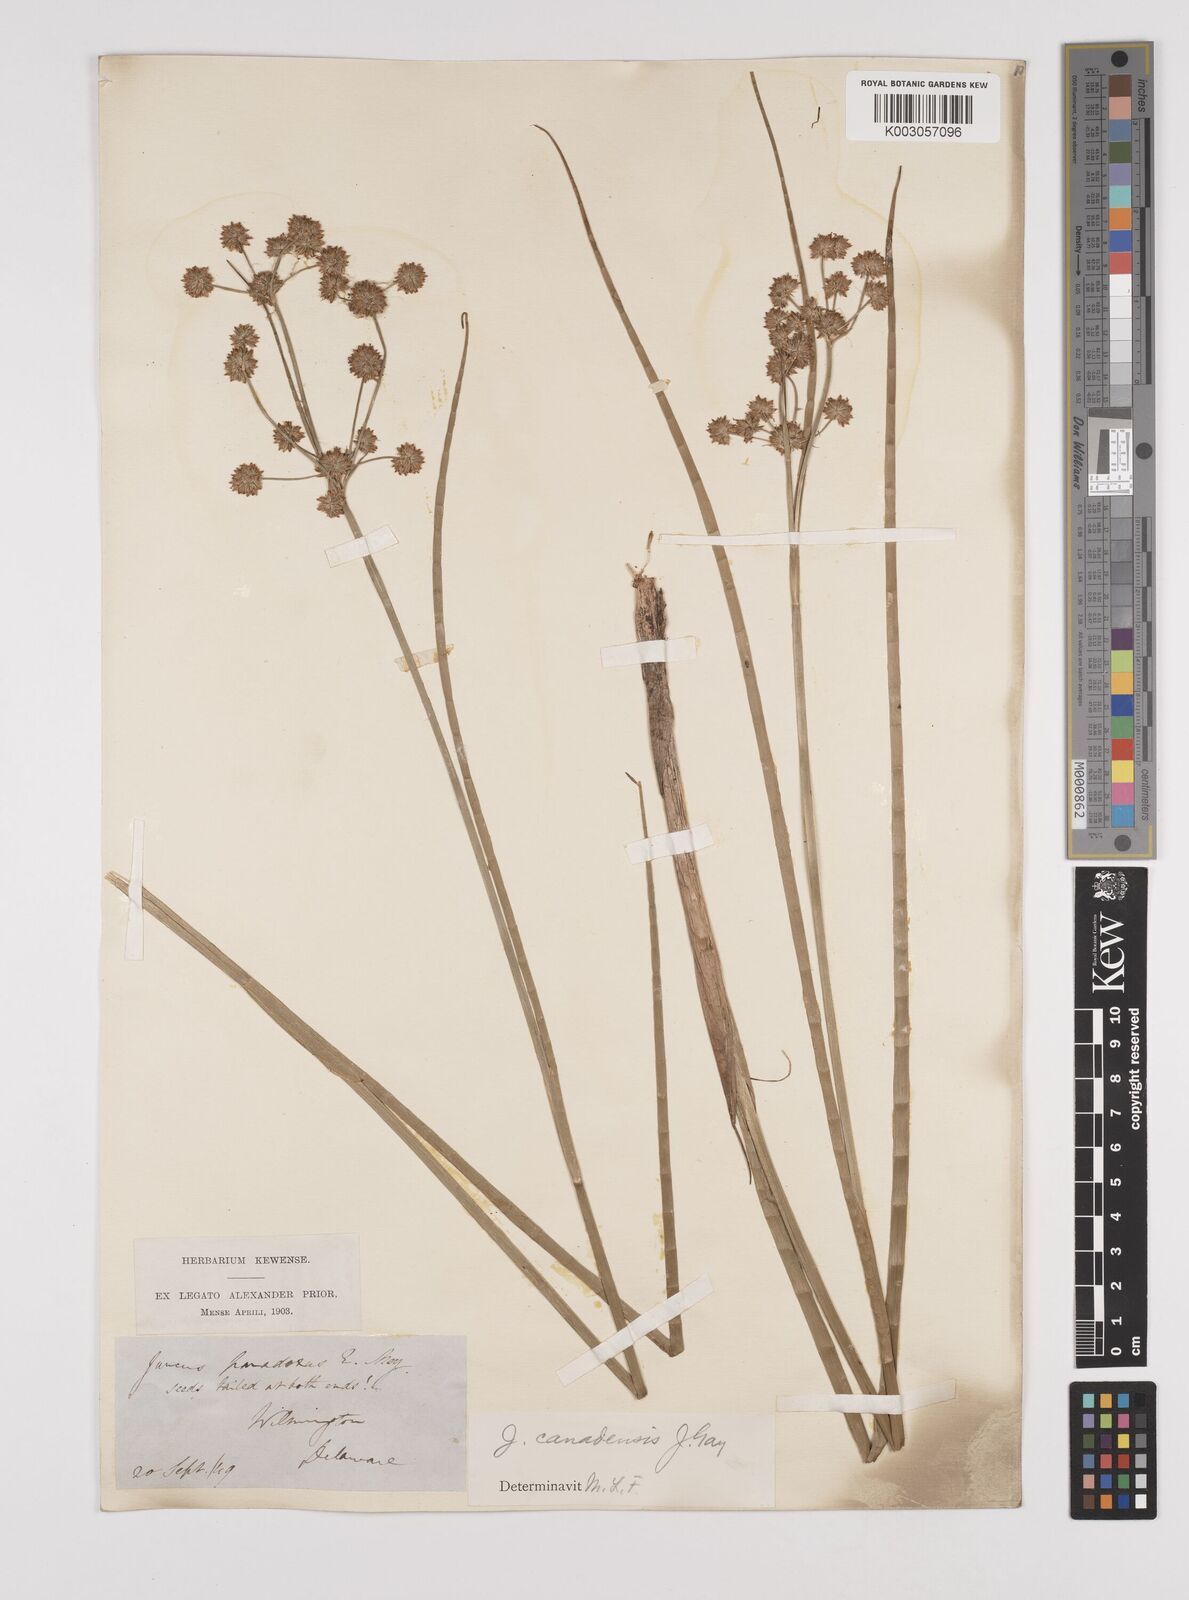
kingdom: Plantae
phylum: Tracheophyta
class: Liliopsida
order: Poales
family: Juncaceae
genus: Juncus
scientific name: Juncus canadensis
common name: Canada rush
